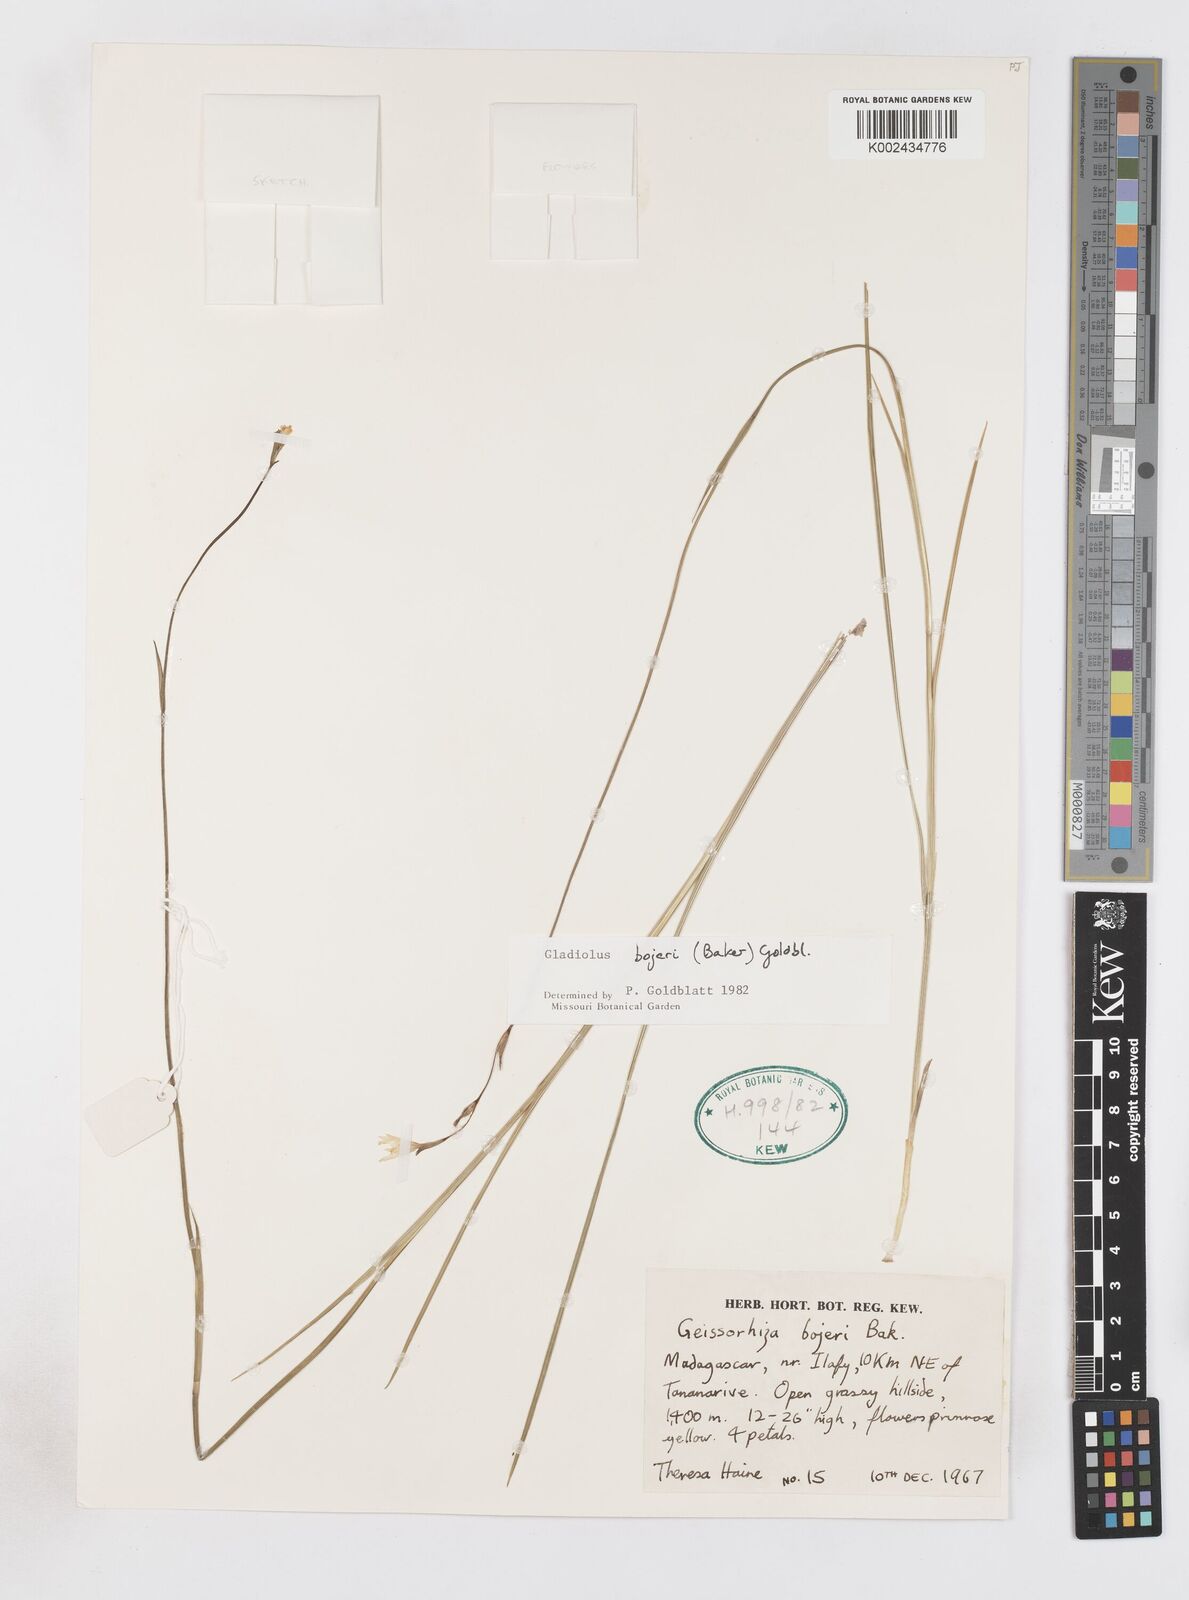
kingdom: Plantae
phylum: Tracheophyta
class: Liliopsida
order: Asparagales
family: Iridaceae
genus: Gladiolus
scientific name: Gladiolus bojeri
